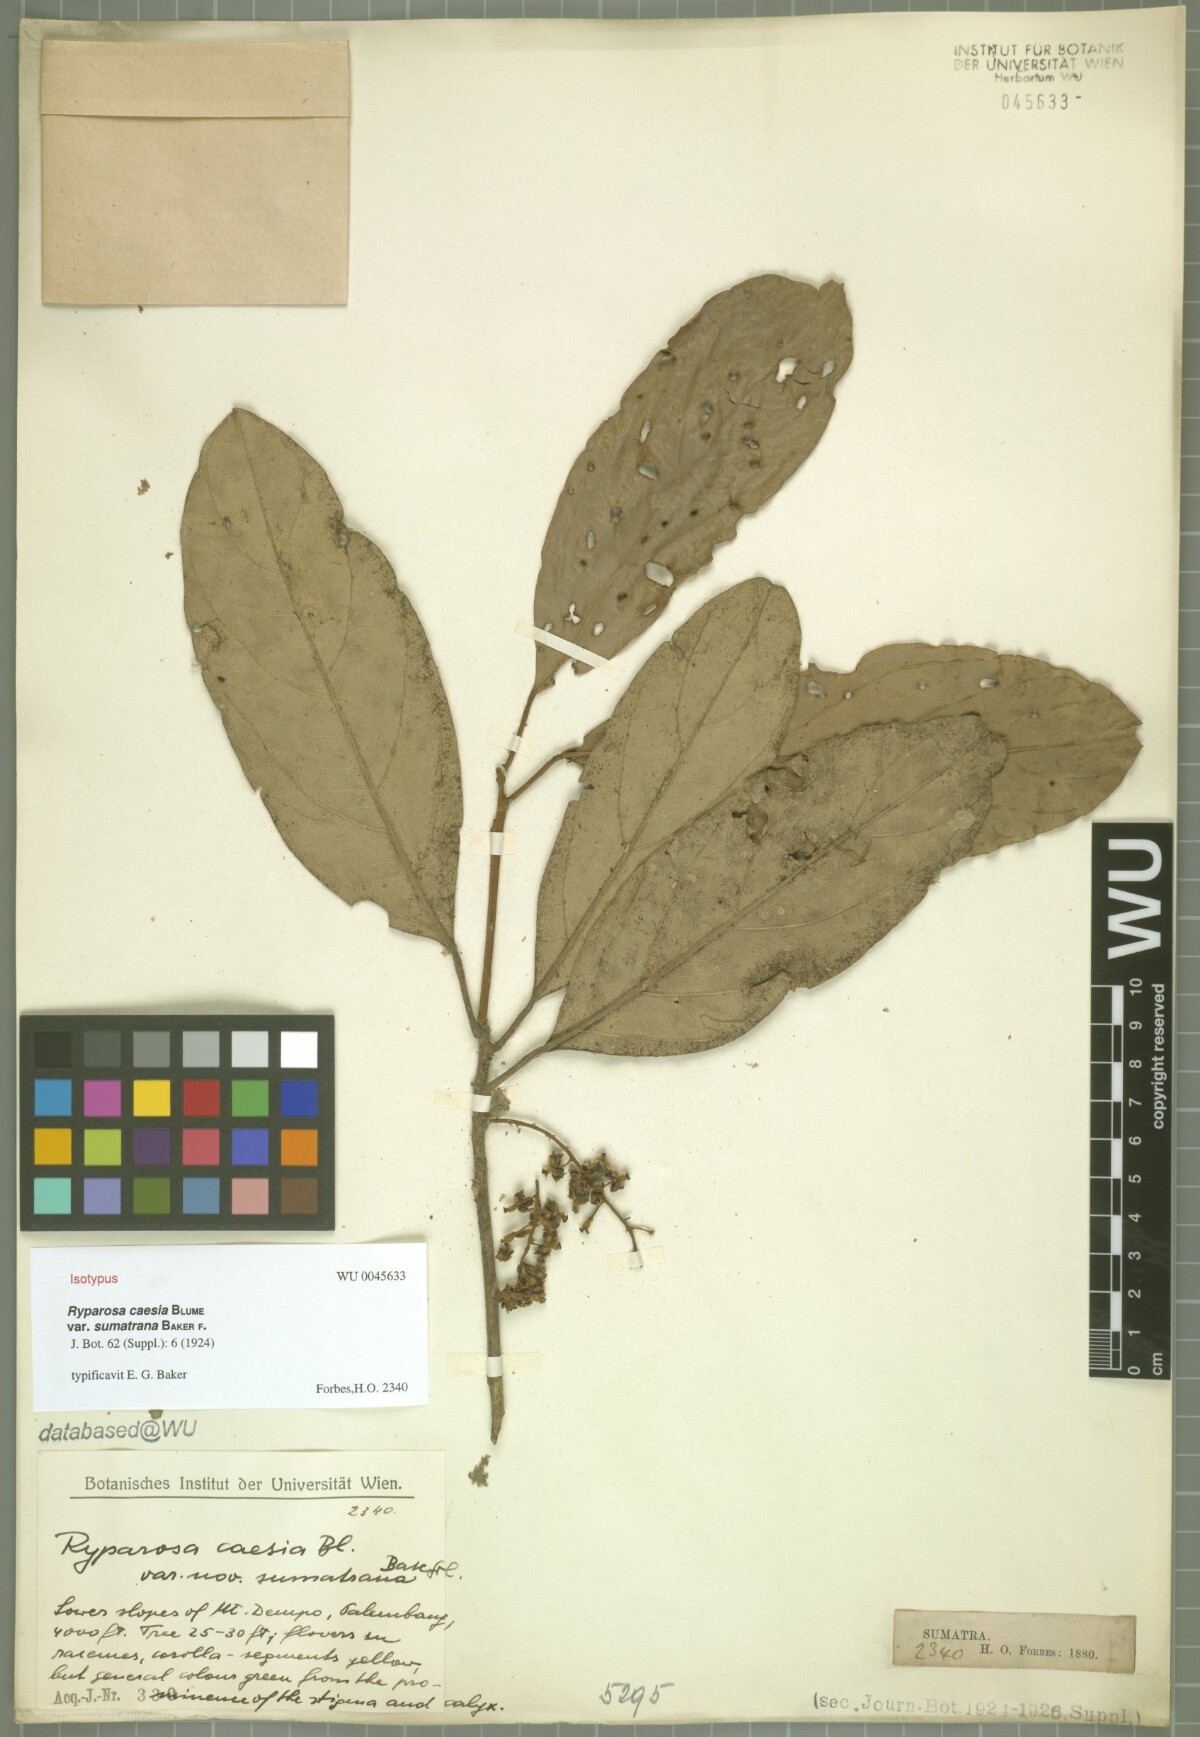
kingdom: Plantae
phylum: Tracheophyta
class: Magnoliopsida
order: Malpighiales
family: Achariaceae
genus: Ryparosa
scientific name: Ryparosa caesia
